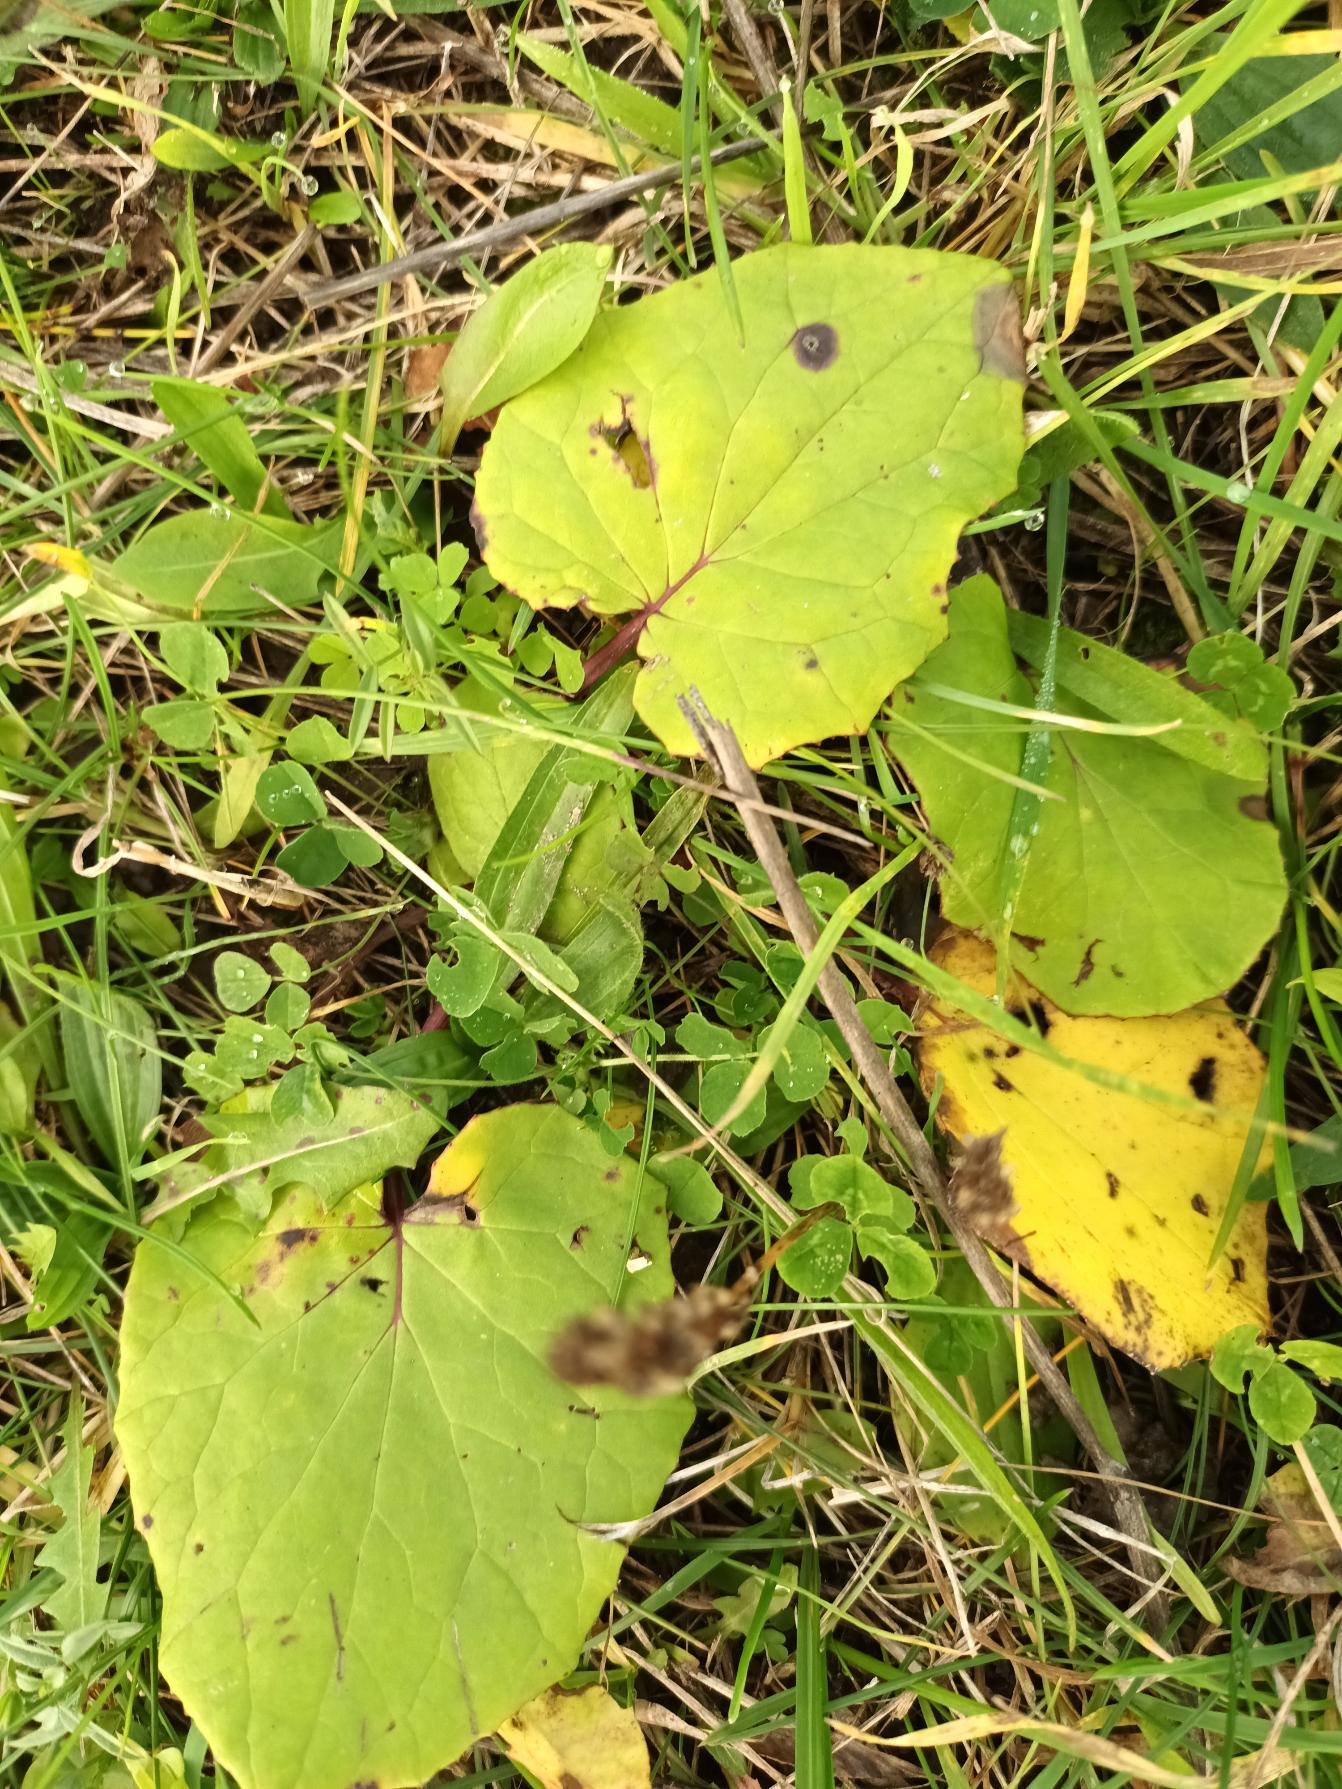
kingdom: Plantae
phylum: Tracheophyta
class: Magnoliopsida
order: Asterales
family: Asteraceae
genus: Tussilago
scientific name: Tussilago farfara
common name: Følfod
